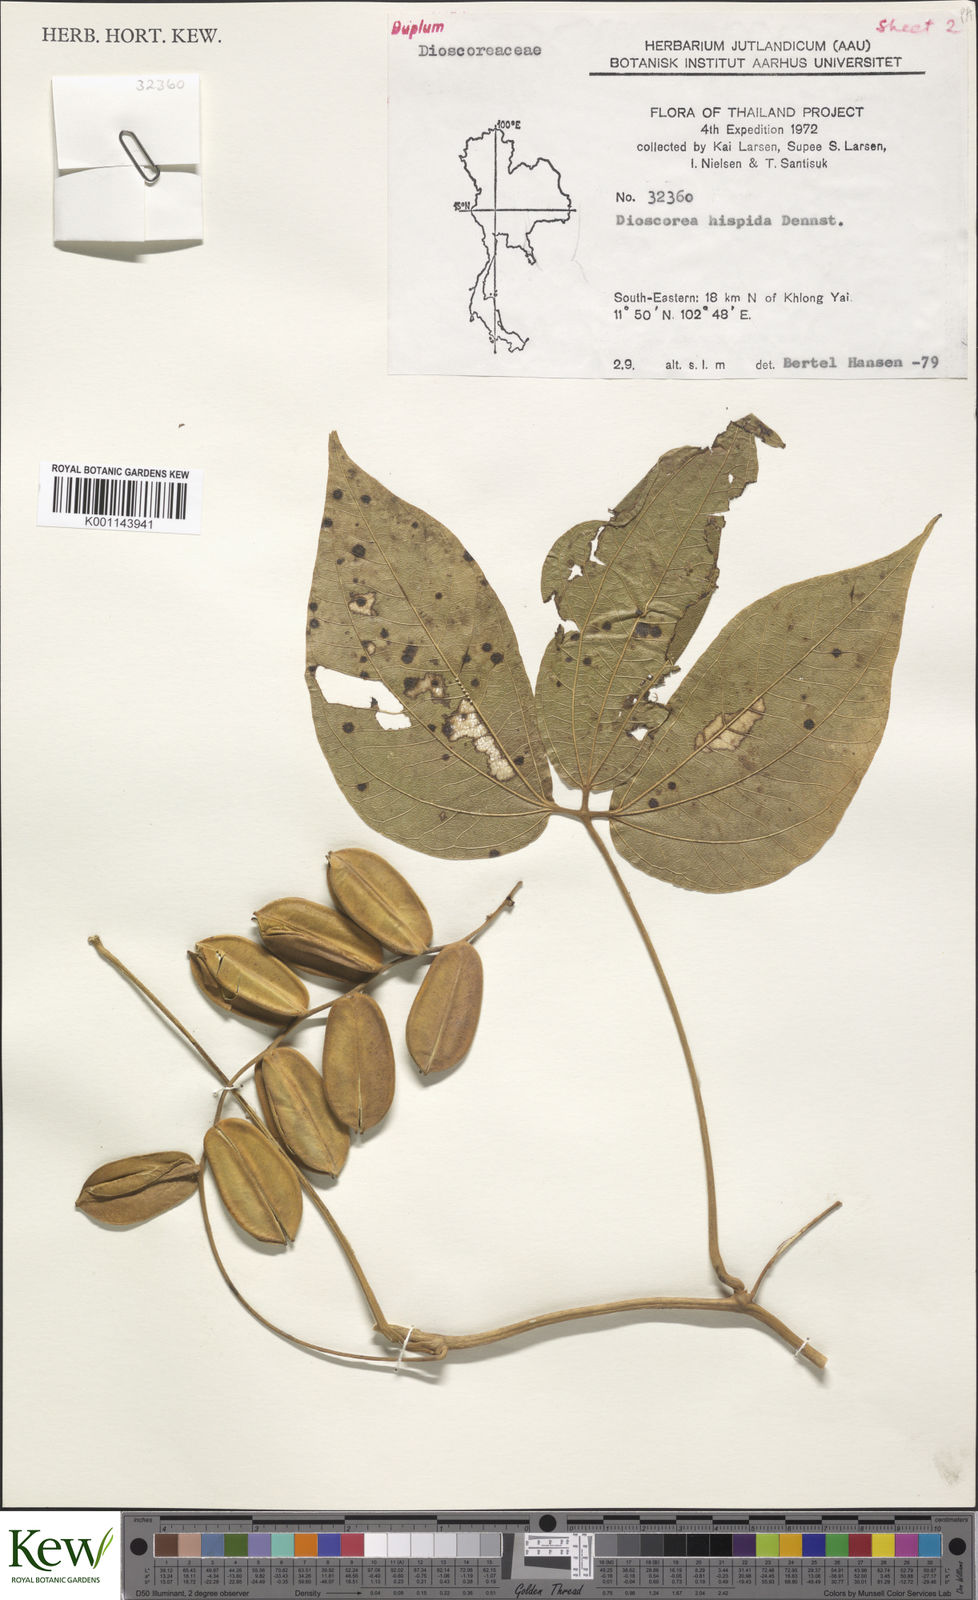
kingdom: Plantae
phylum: Tracheophyta
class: Liliopsida
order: Dioscoreales
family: Dioscoreaceae
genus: Dioscorea
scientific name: Dioscorea hispida
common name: Asiatic bitter yam
